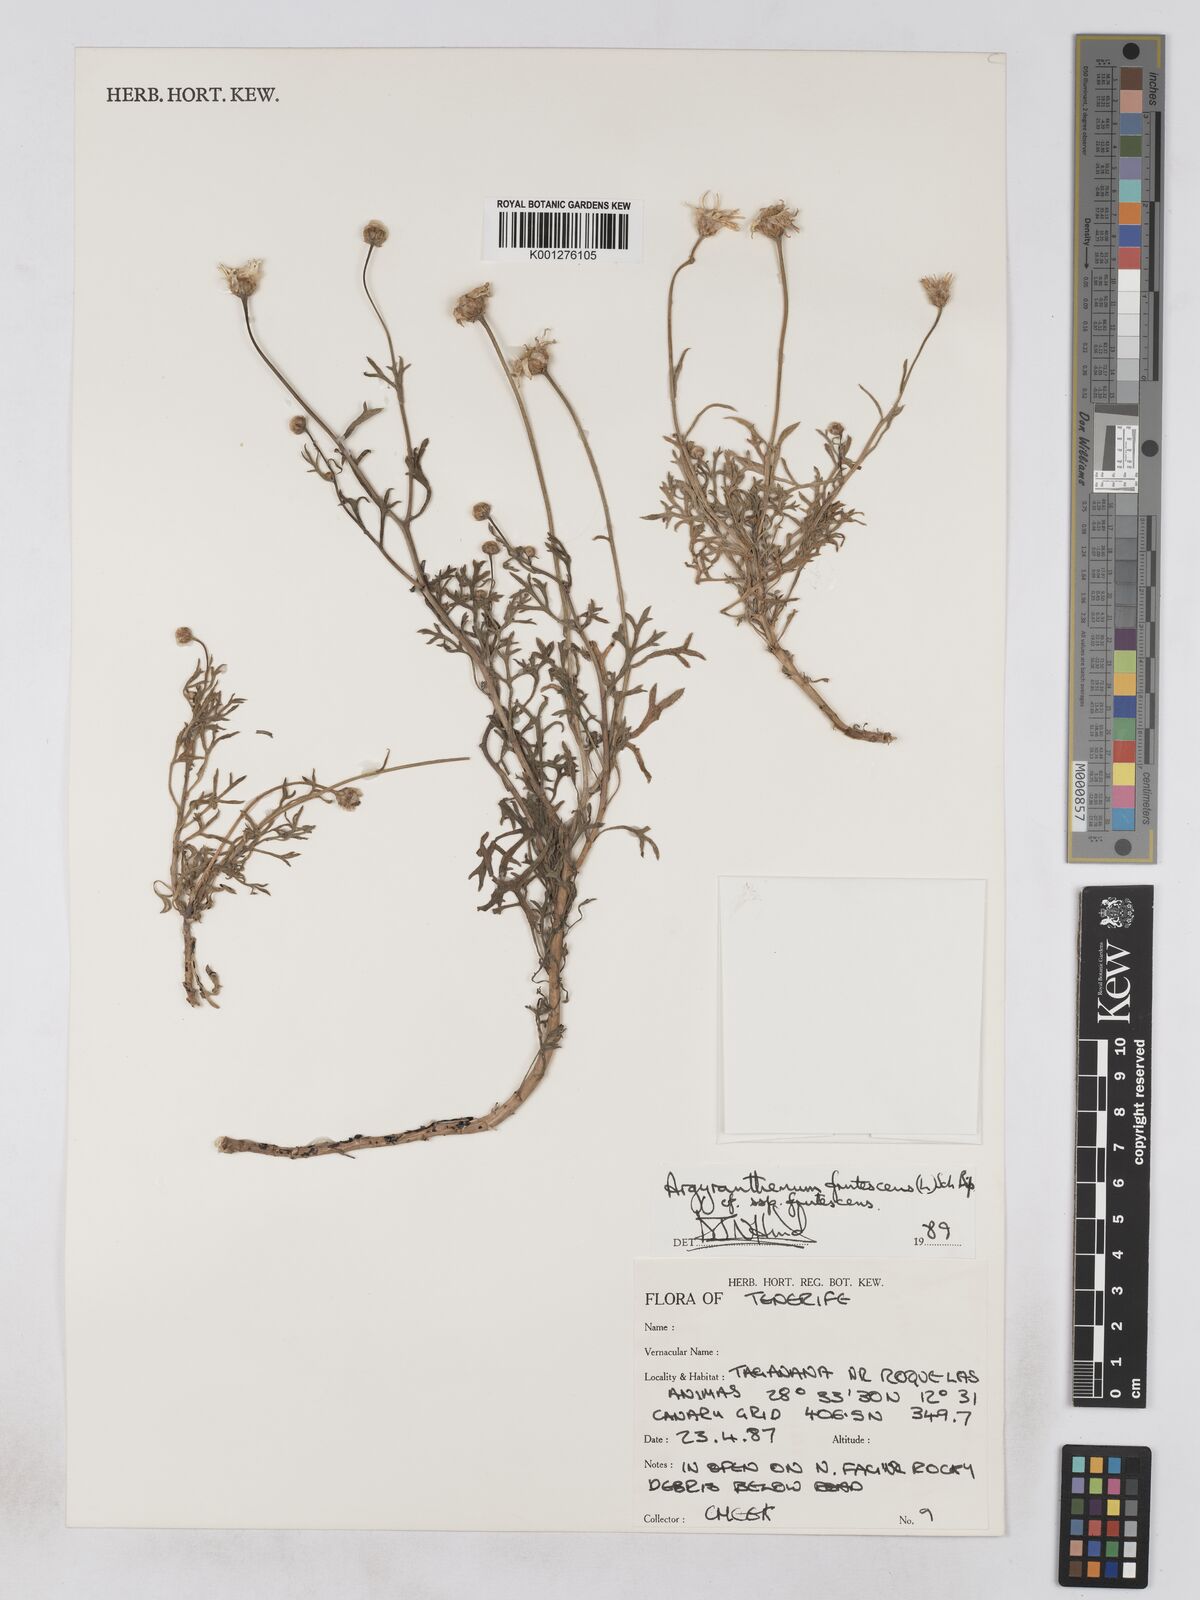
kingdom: Plantae
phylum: Tracheophyta
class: Magnoliopsida
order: Asterales
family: Asteraceae
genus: Argyranthemum
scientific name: Argyranthemum frutescens
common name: Paris daisy
